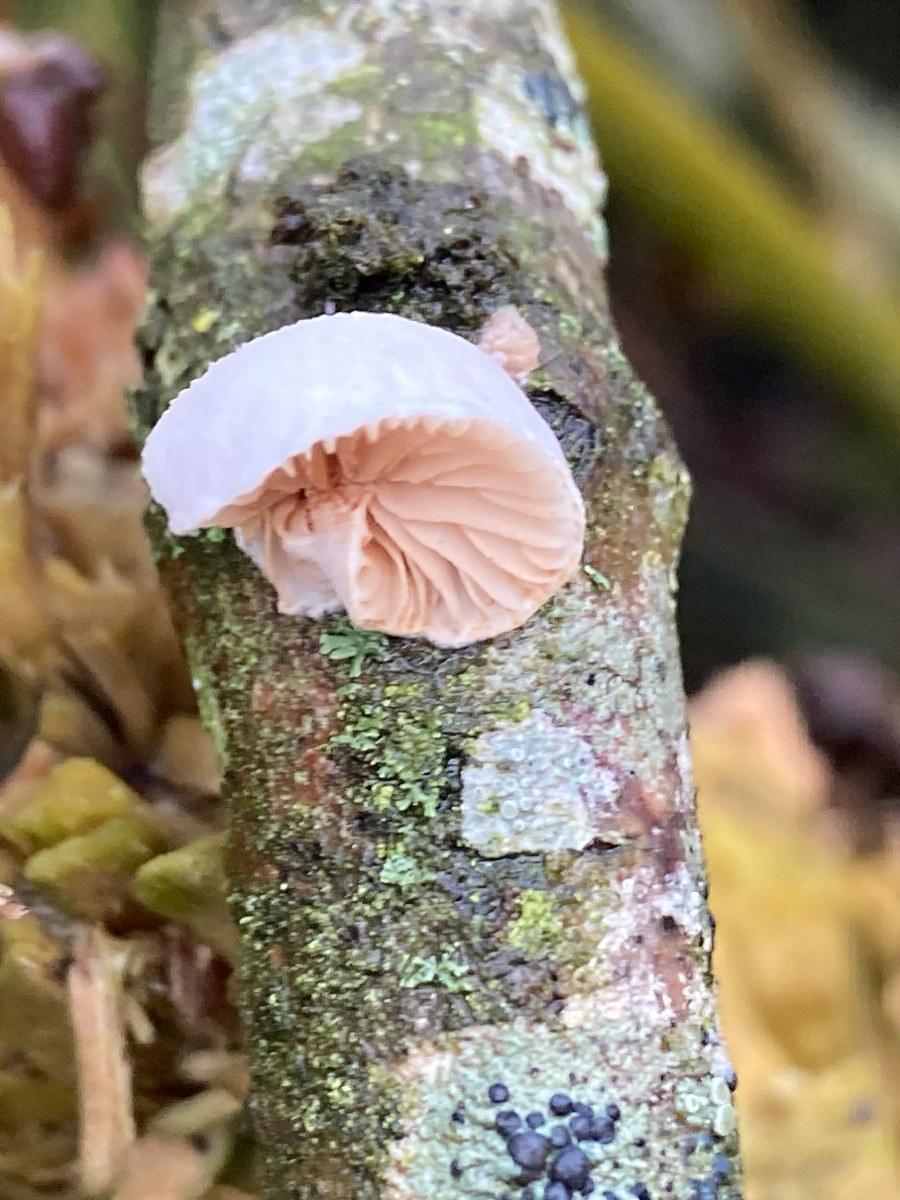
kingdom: Fungi
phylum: Basidiomycota
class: Agaricomycetes
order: Agaricales
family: Crepidotaceae
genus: Crepidotus
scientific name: Crepidotus
